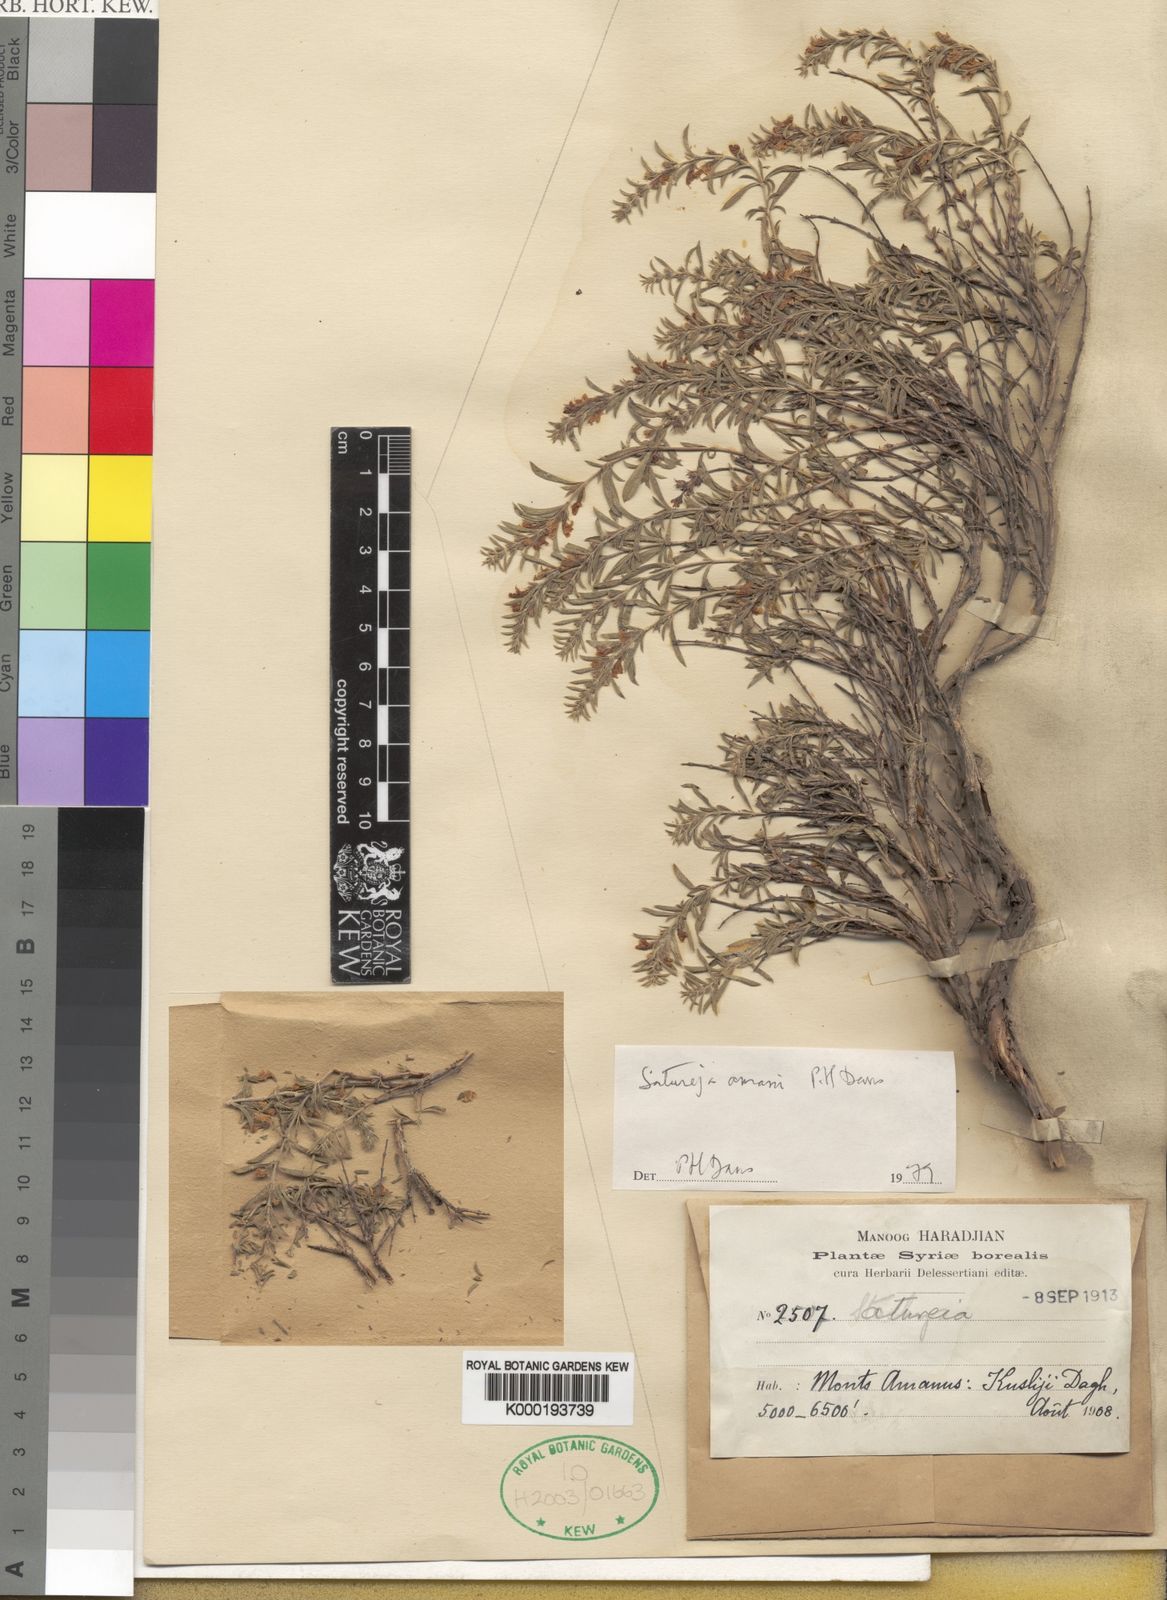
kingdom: Plantae
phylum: Tracheophyta
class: Magnoliopsida
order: Lamiales
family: Lamiaceae
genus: Satureja
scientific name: Satureja amani
